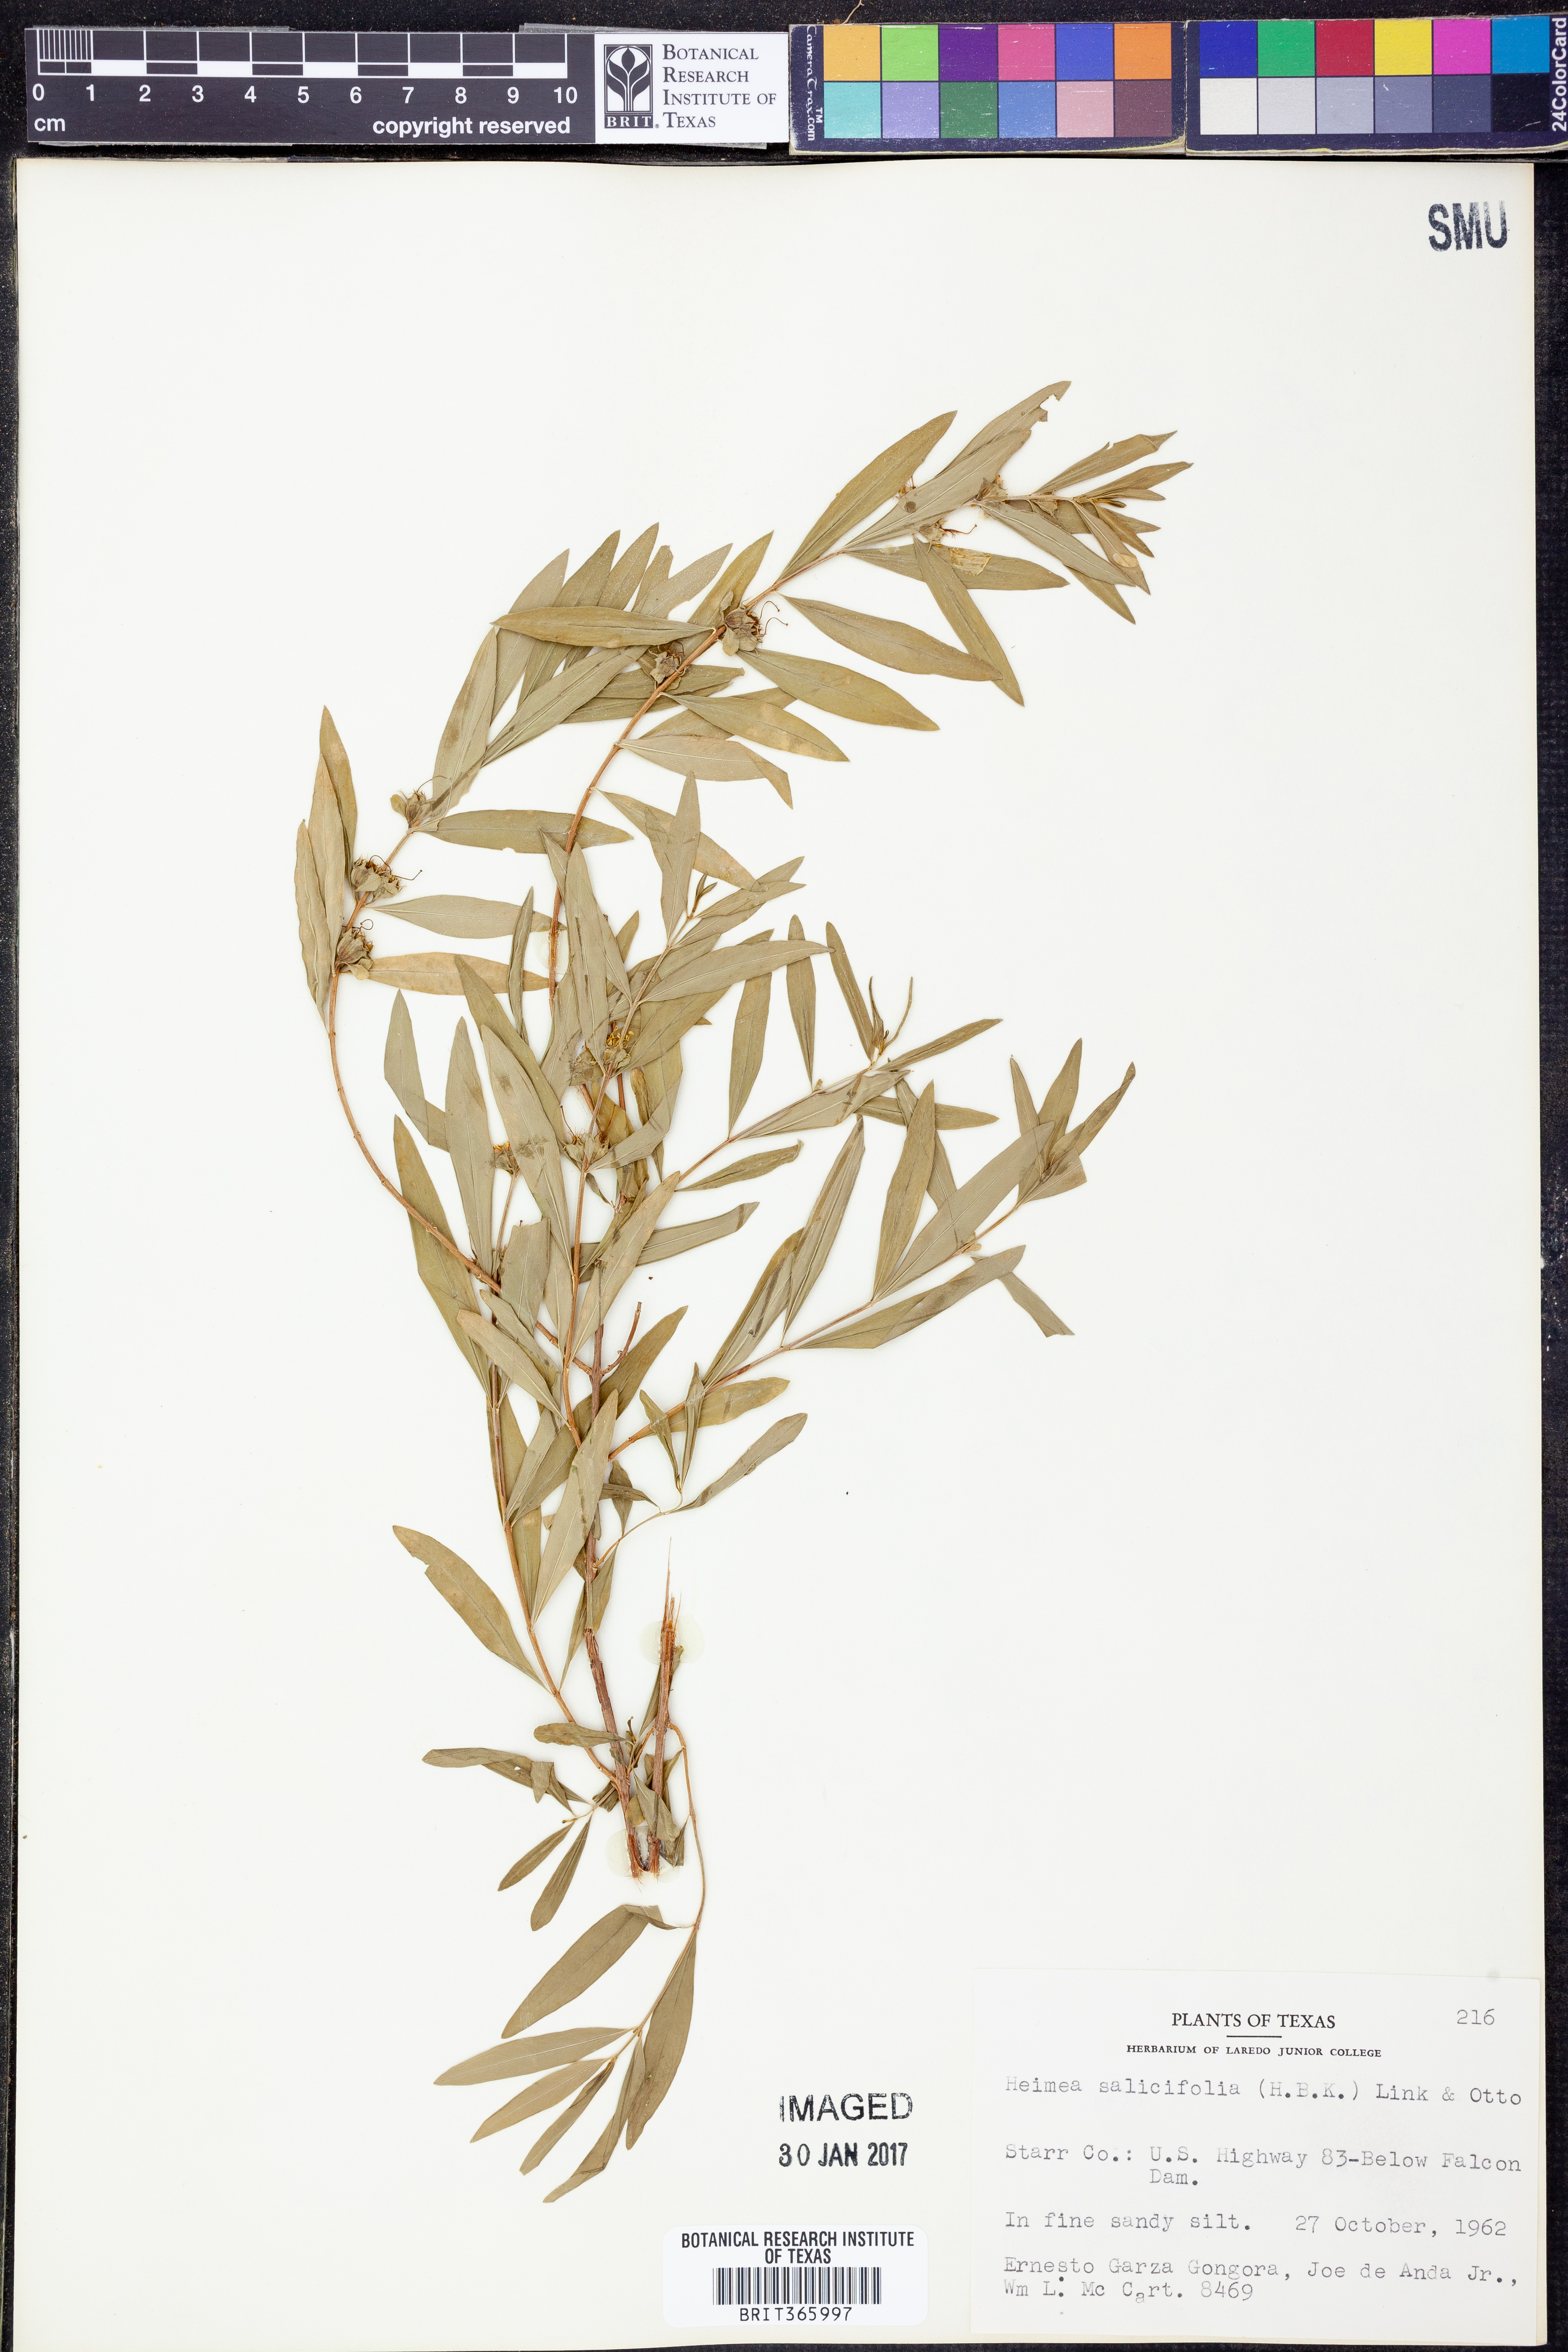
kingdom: Plantae
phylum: Tracheophyta
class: Magnoliopsida
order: Myrtales
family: Lythraceae
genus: Heimia
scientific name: Heimia salicifolia
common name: Willow-leaf heimia
